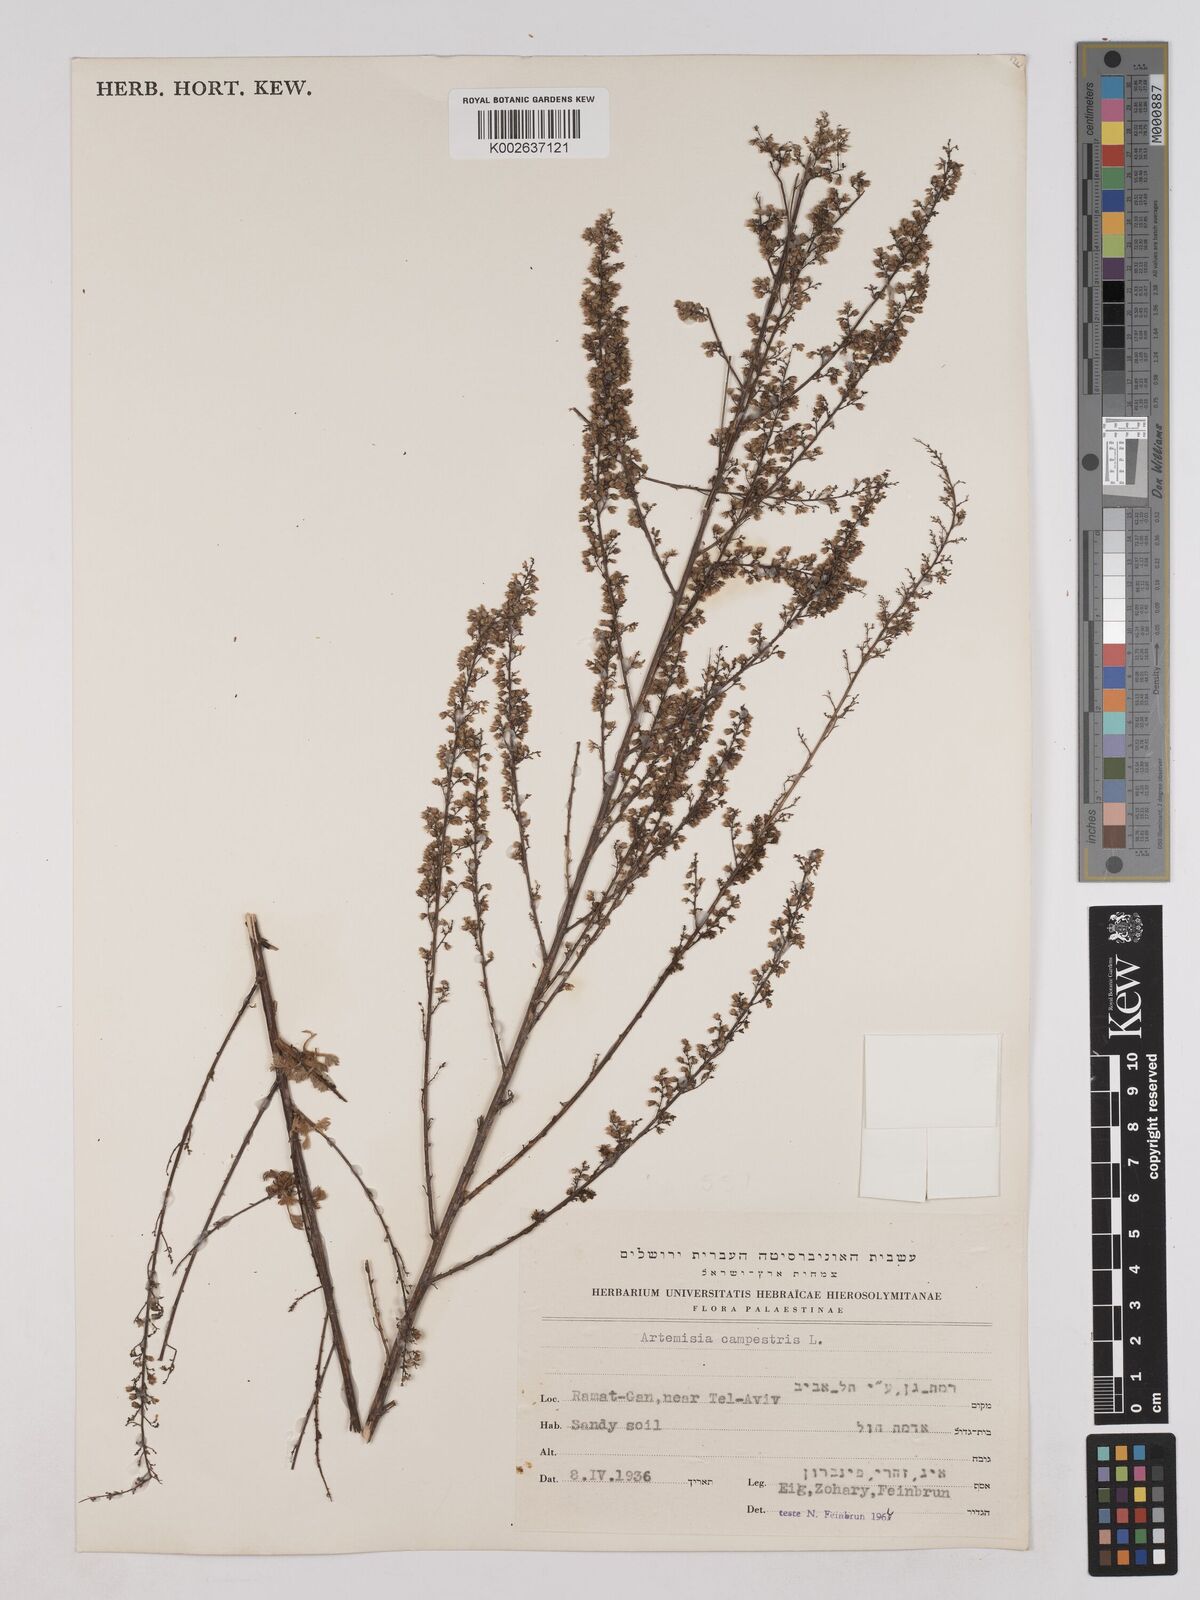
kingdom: Plantae
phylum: Tracheophyta
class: Magnoliopsida
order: Asterales
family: Asteraceae
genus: Artemisia
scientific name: Artemisia campestris
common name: Field wormwood
